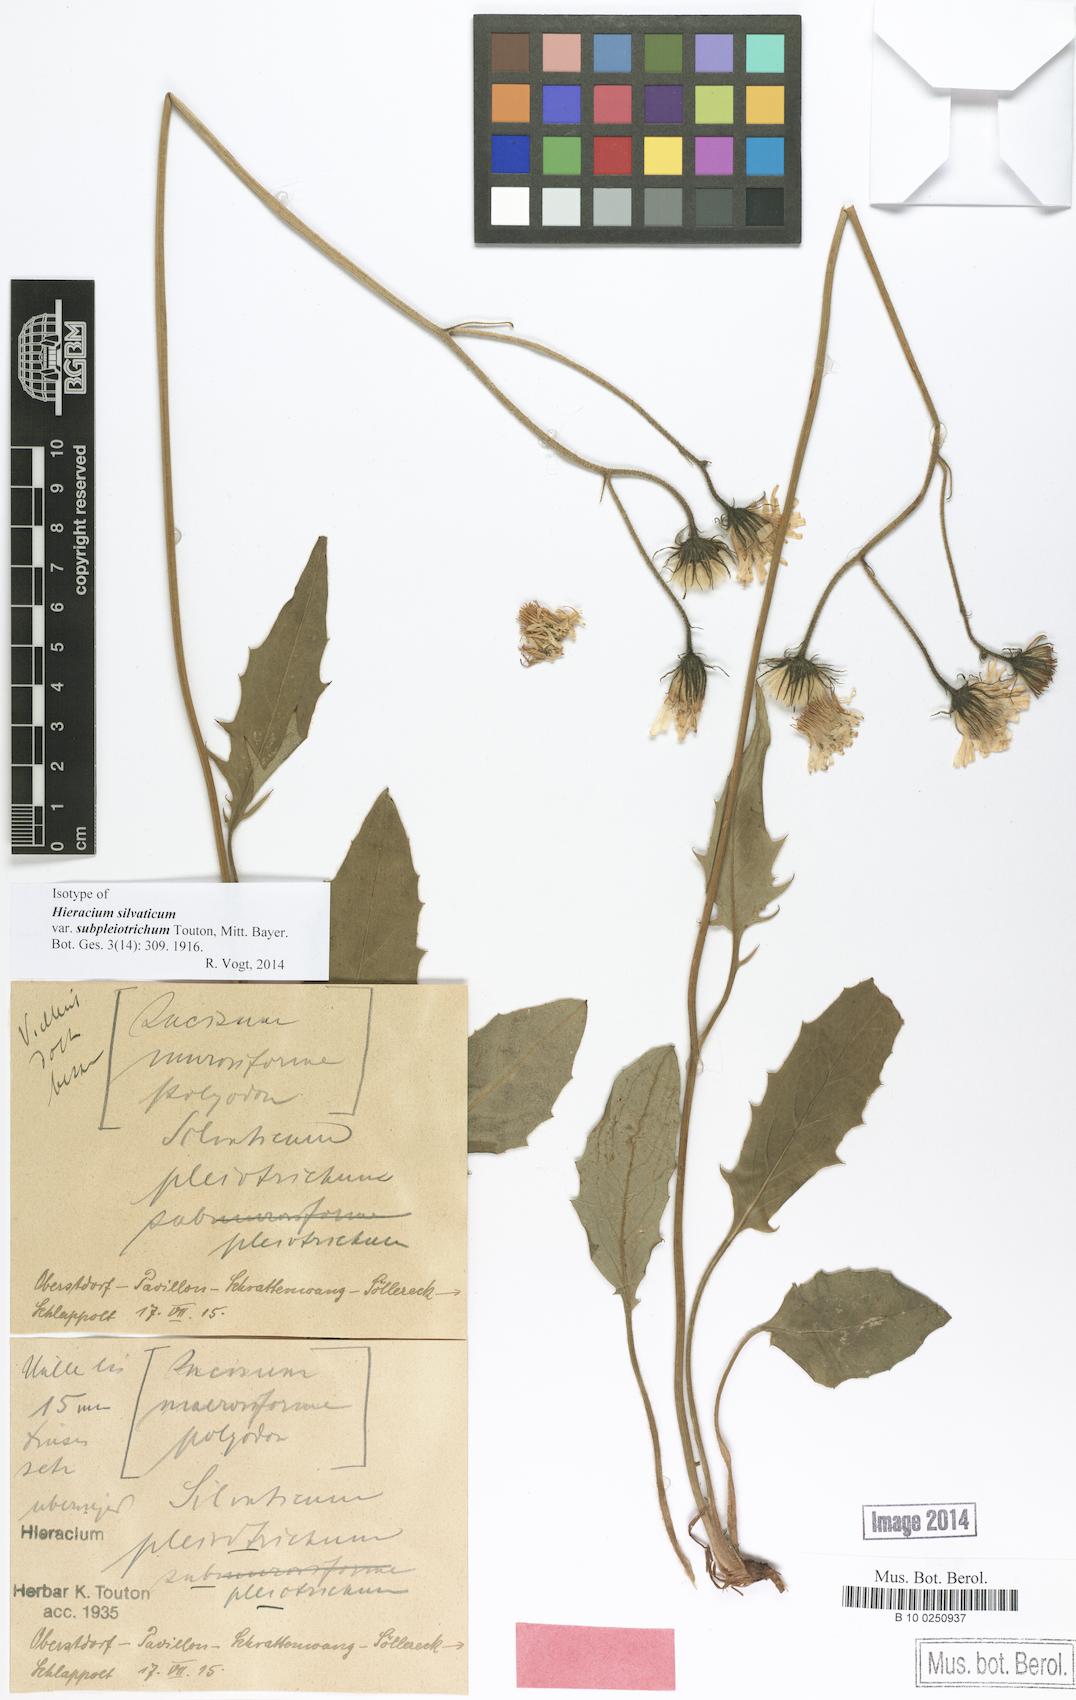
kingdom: Plantae
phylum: Tracheophyta
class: Magnoliopsida
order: Asterales
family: Asteraceae
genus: Hieracium
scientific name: Hieracium
